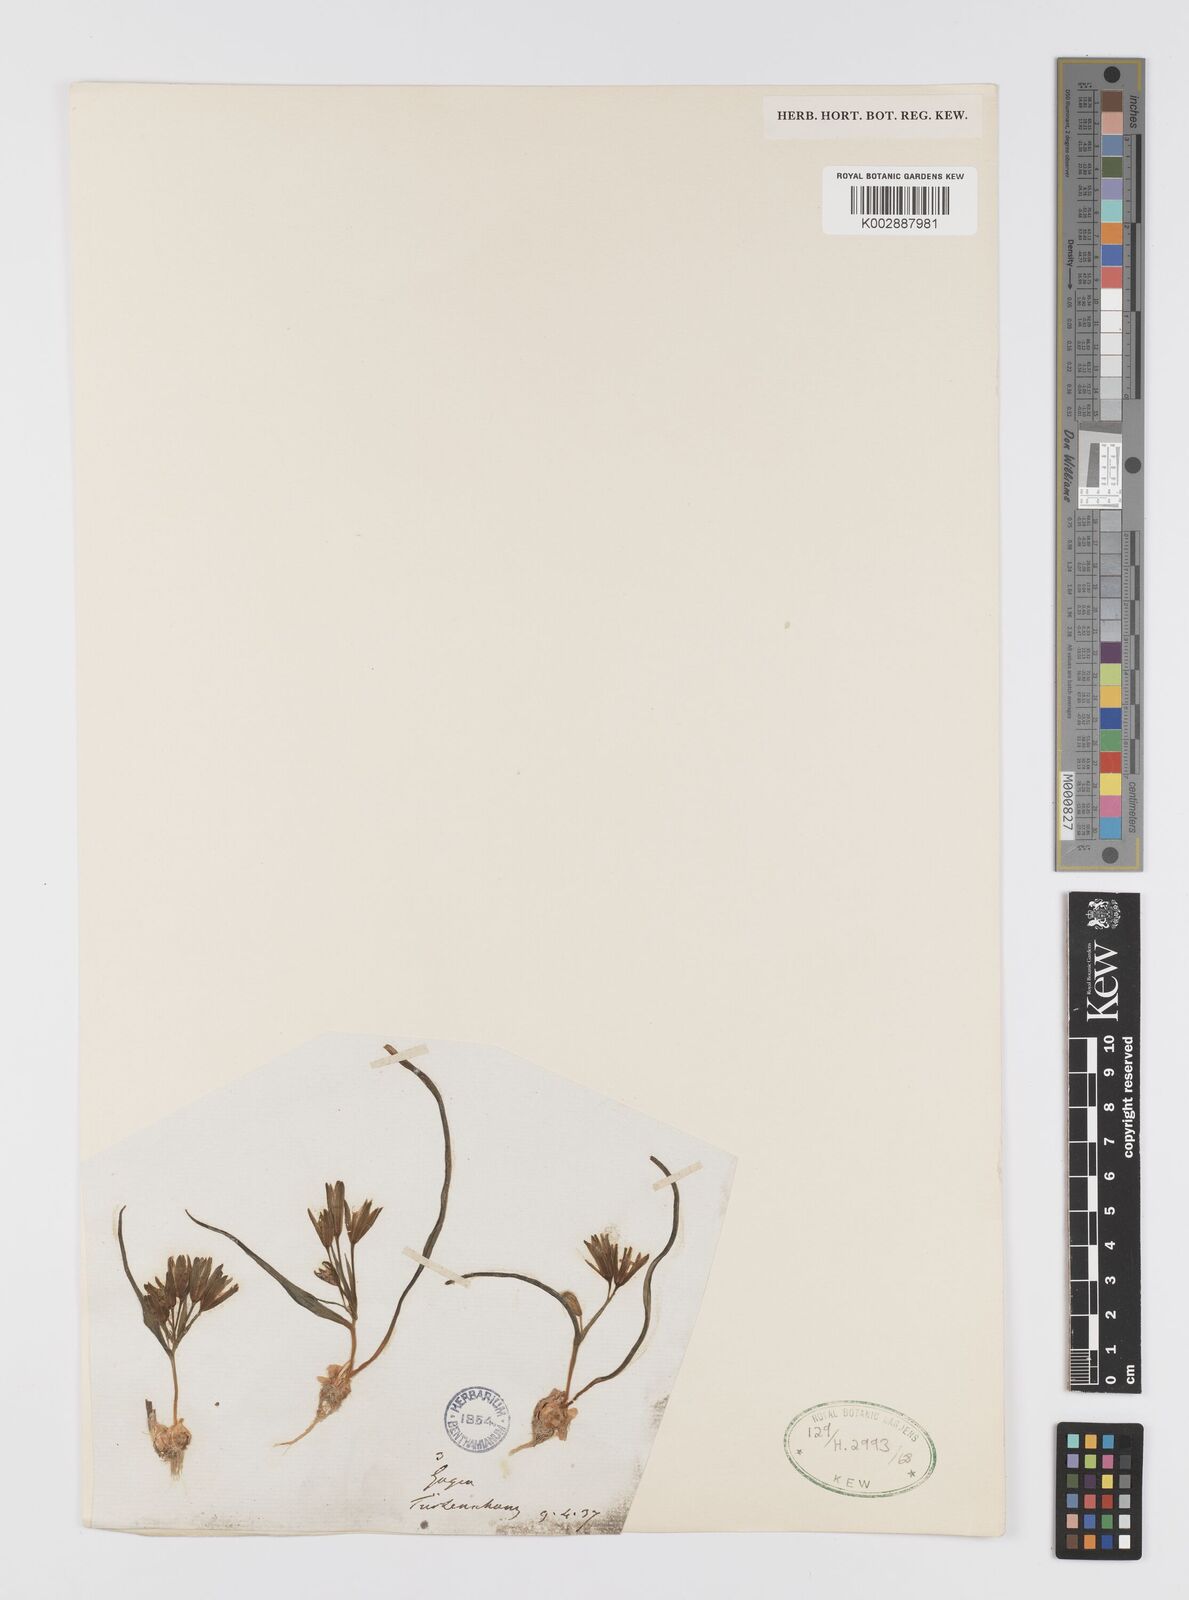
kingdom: Plantae
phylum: Tracheophyta
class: Liliopsida
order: Liliales
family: Liliaceae
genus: Gagea
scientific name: Gagea bohemica
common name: Early star-of-bethlehem
